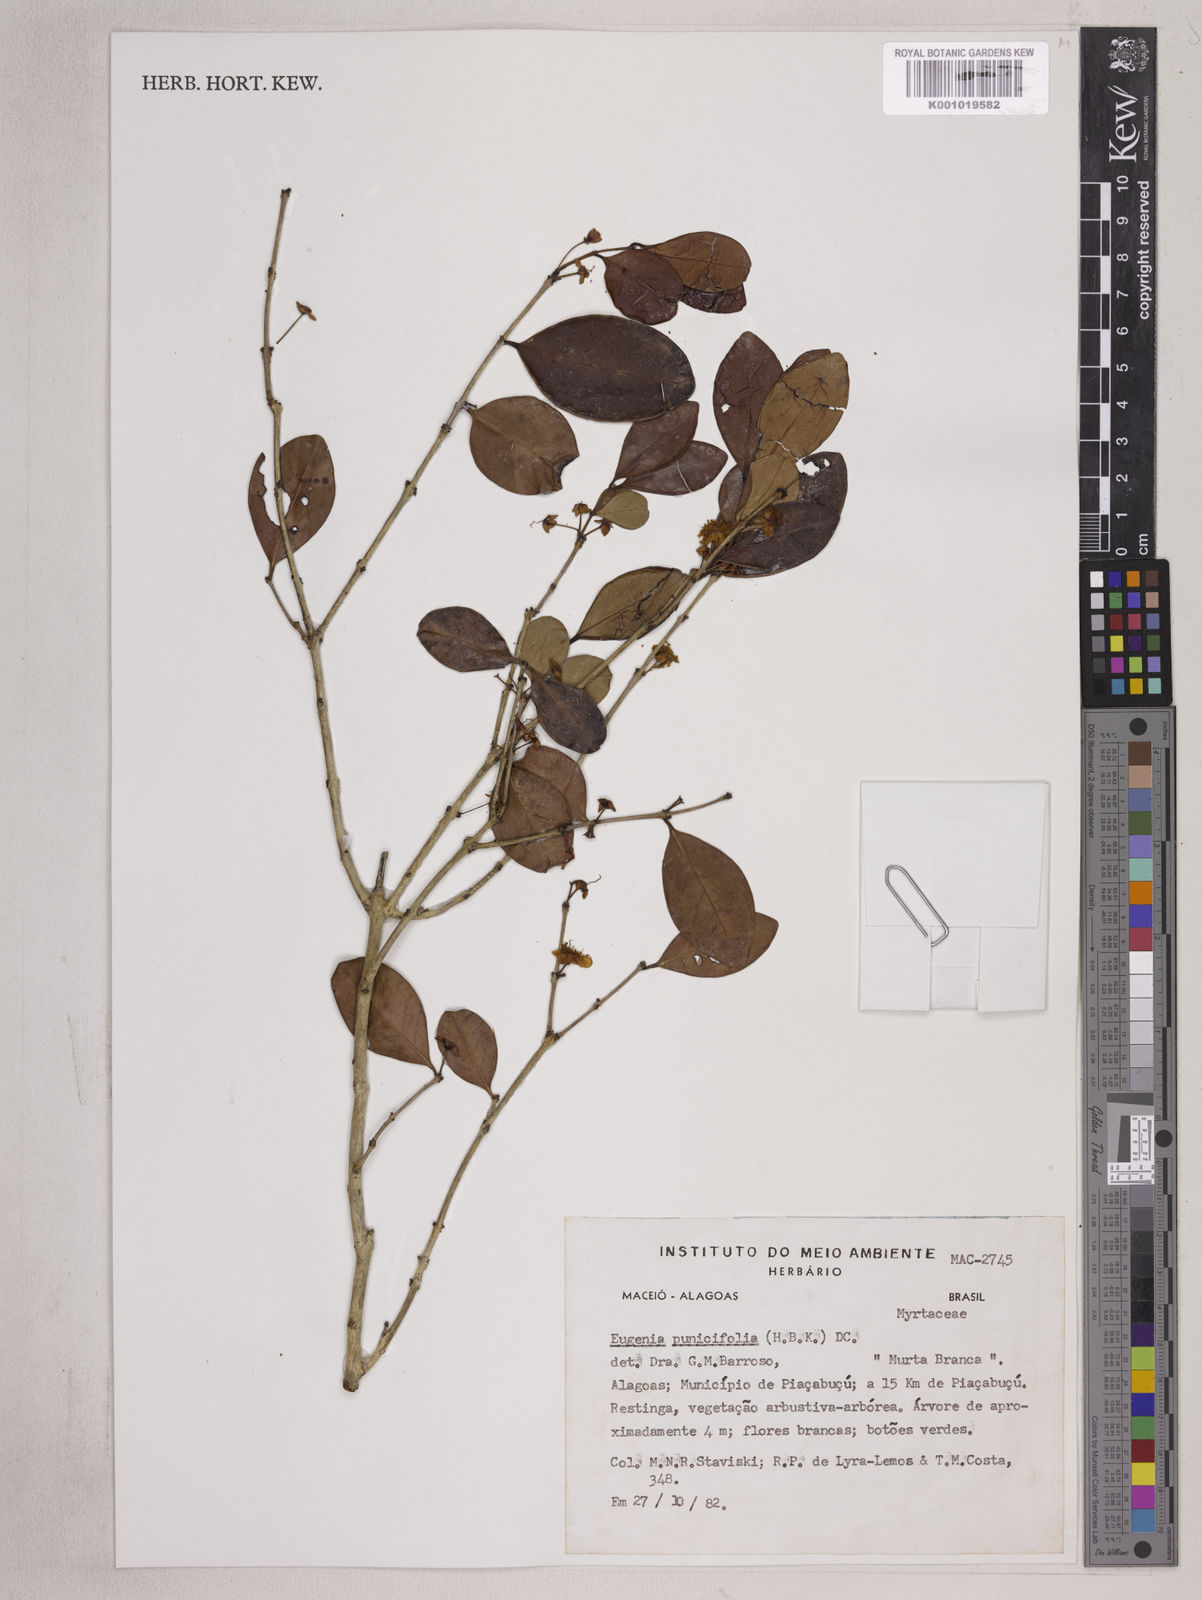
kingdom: Plantae
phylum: Tracheophyta
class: Magnoliopsida
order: Myrtales
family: Myrtaceae
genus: Eugenia
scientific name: Eugenia punicifolia
